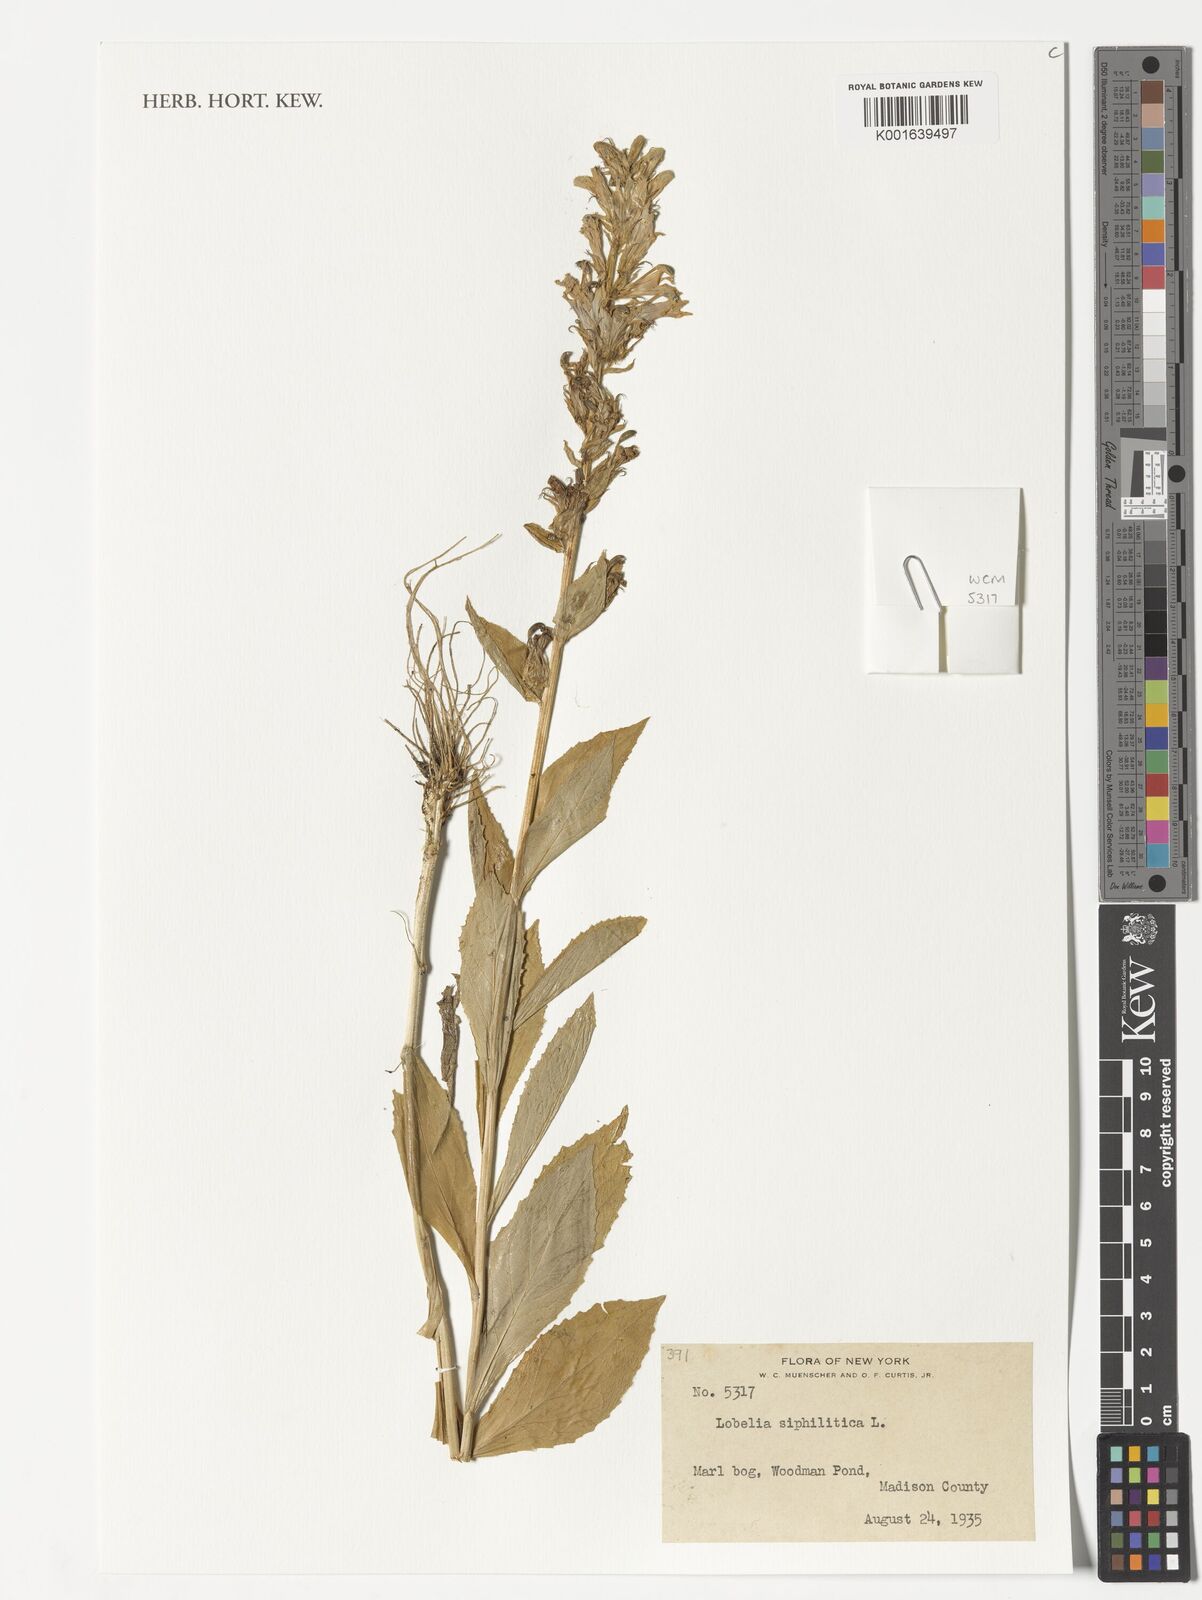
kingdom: Plantae
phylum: Tracheophyta
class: Magnoliopsida
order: Asterales
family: Campanulaceae
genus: Lobelia
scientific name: Lobelia siphilitica
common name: Great lobelia
